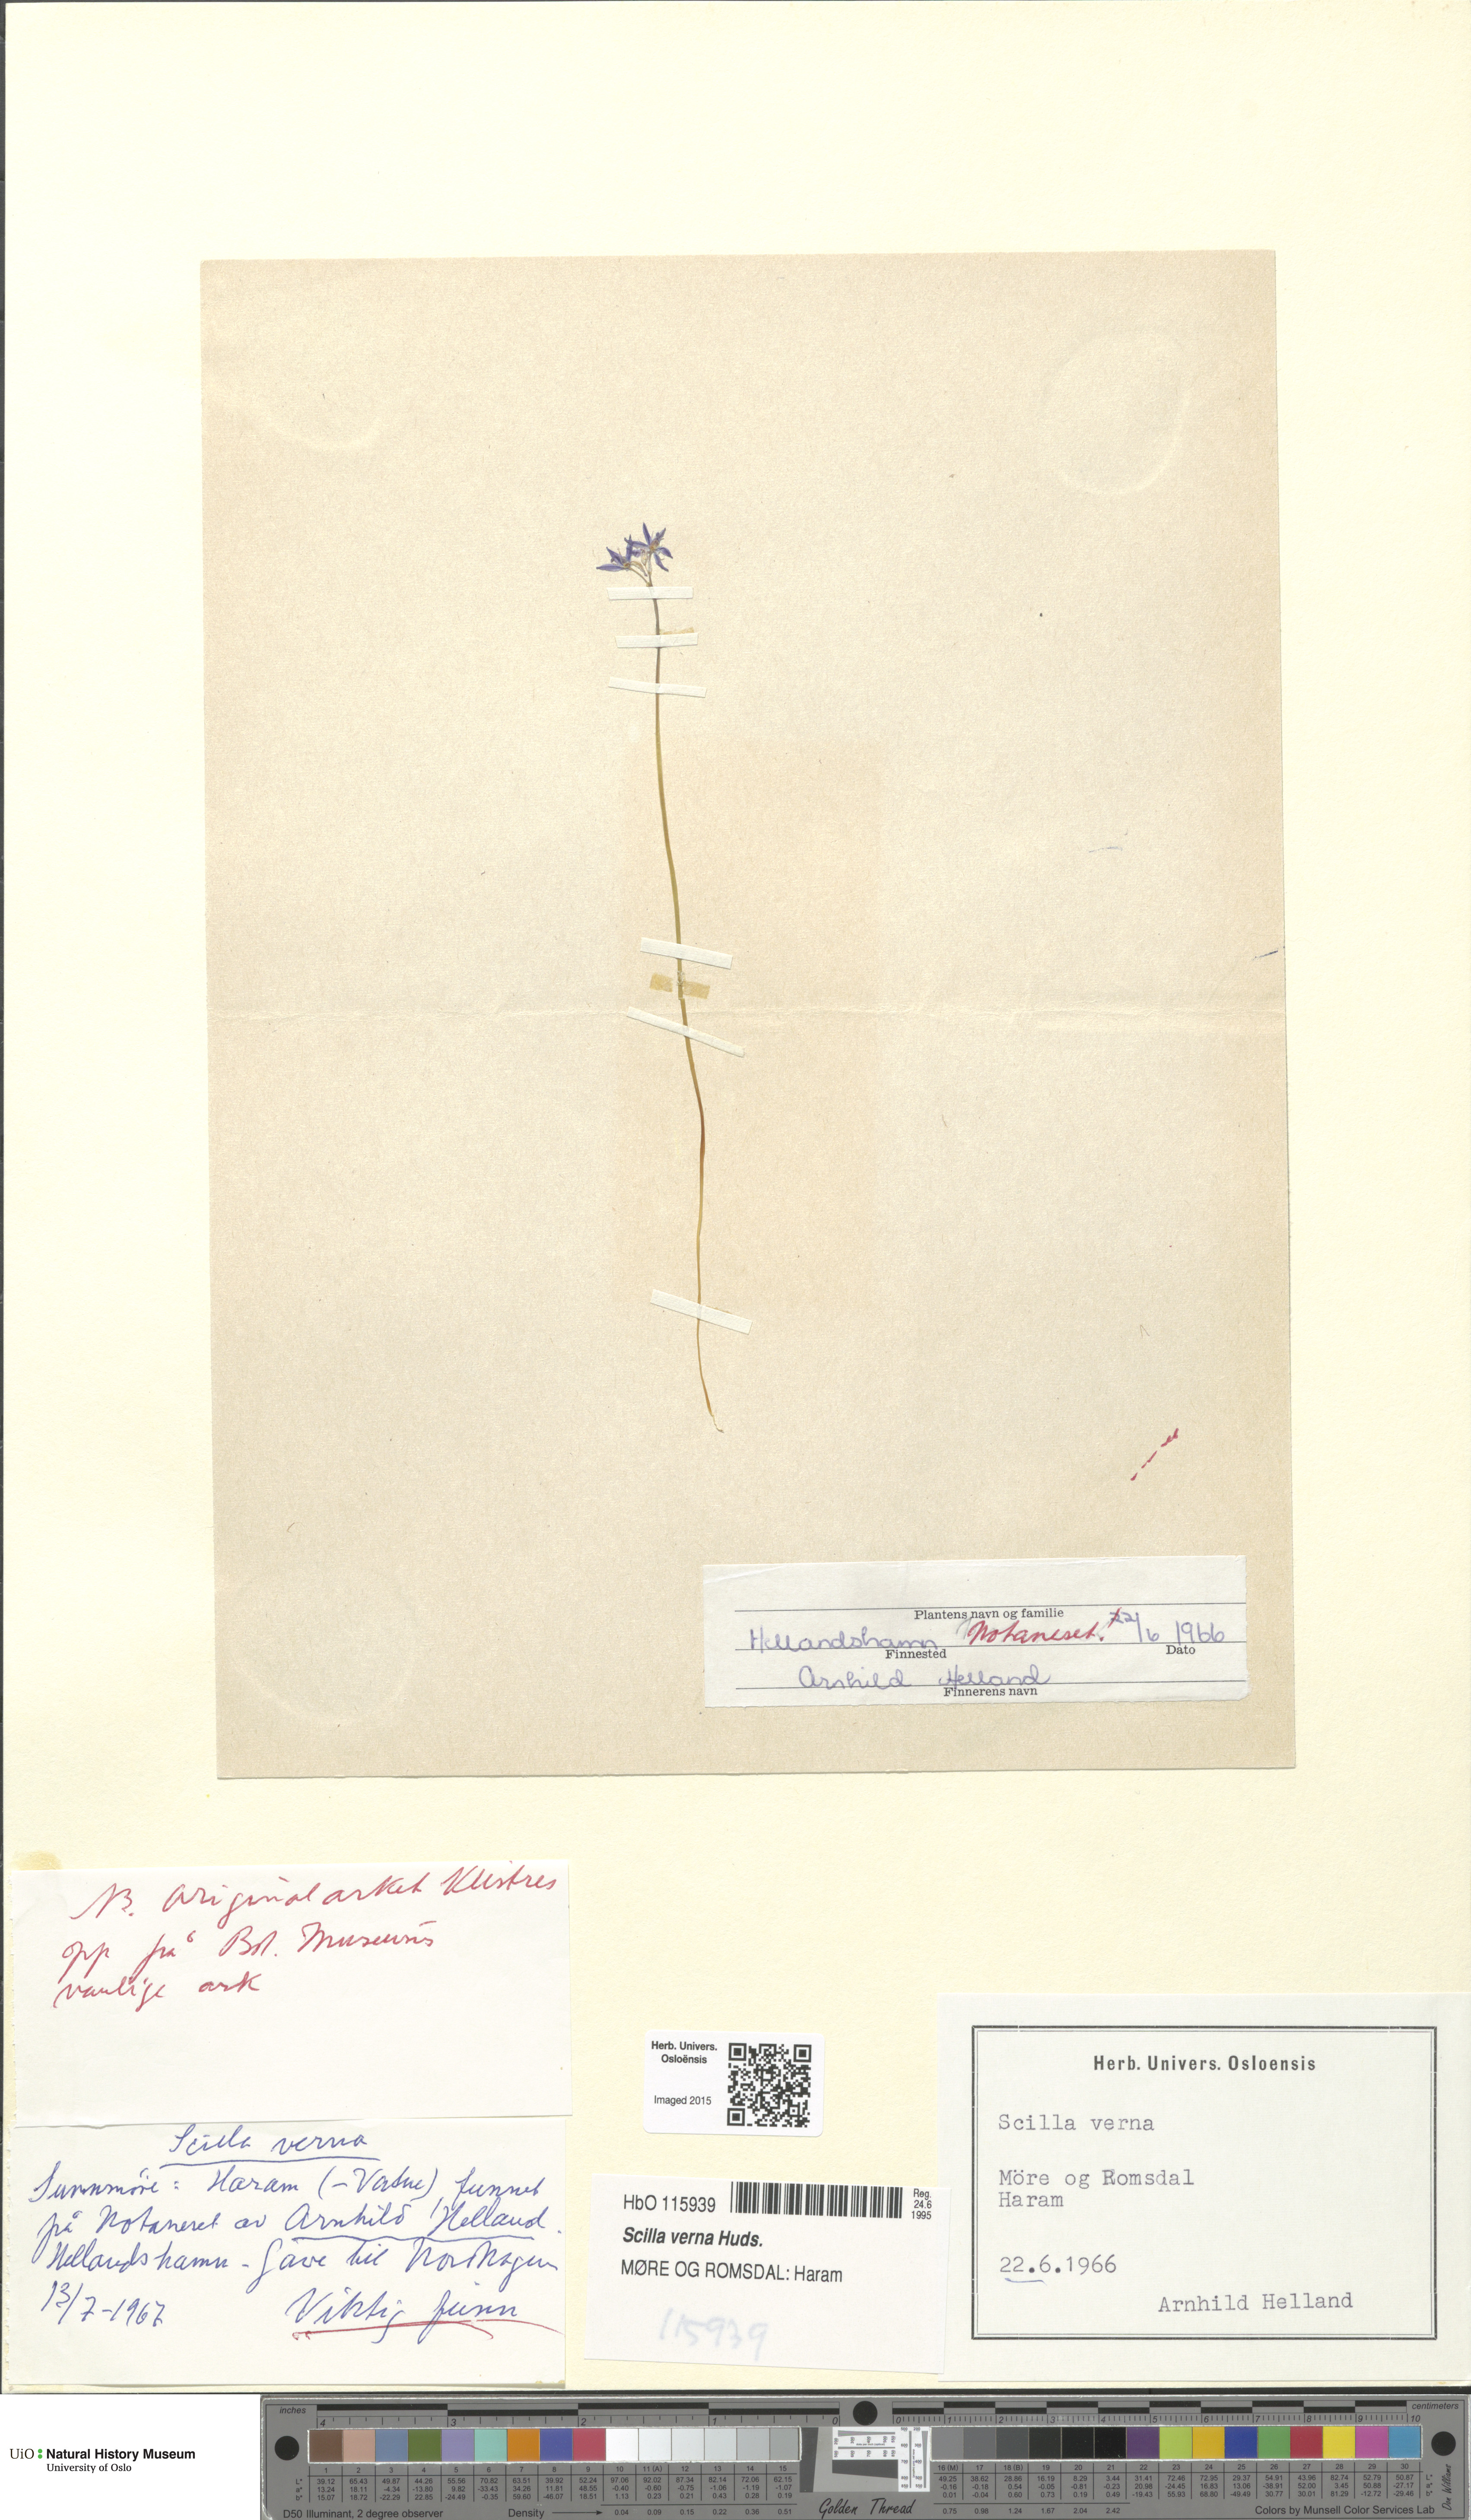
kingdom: Plantae
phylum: Tracheophyta
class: Liliopsida
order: Asparagales
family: Asparagaceae
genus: Scilla
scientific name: Scilla verna
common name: Spring squill
